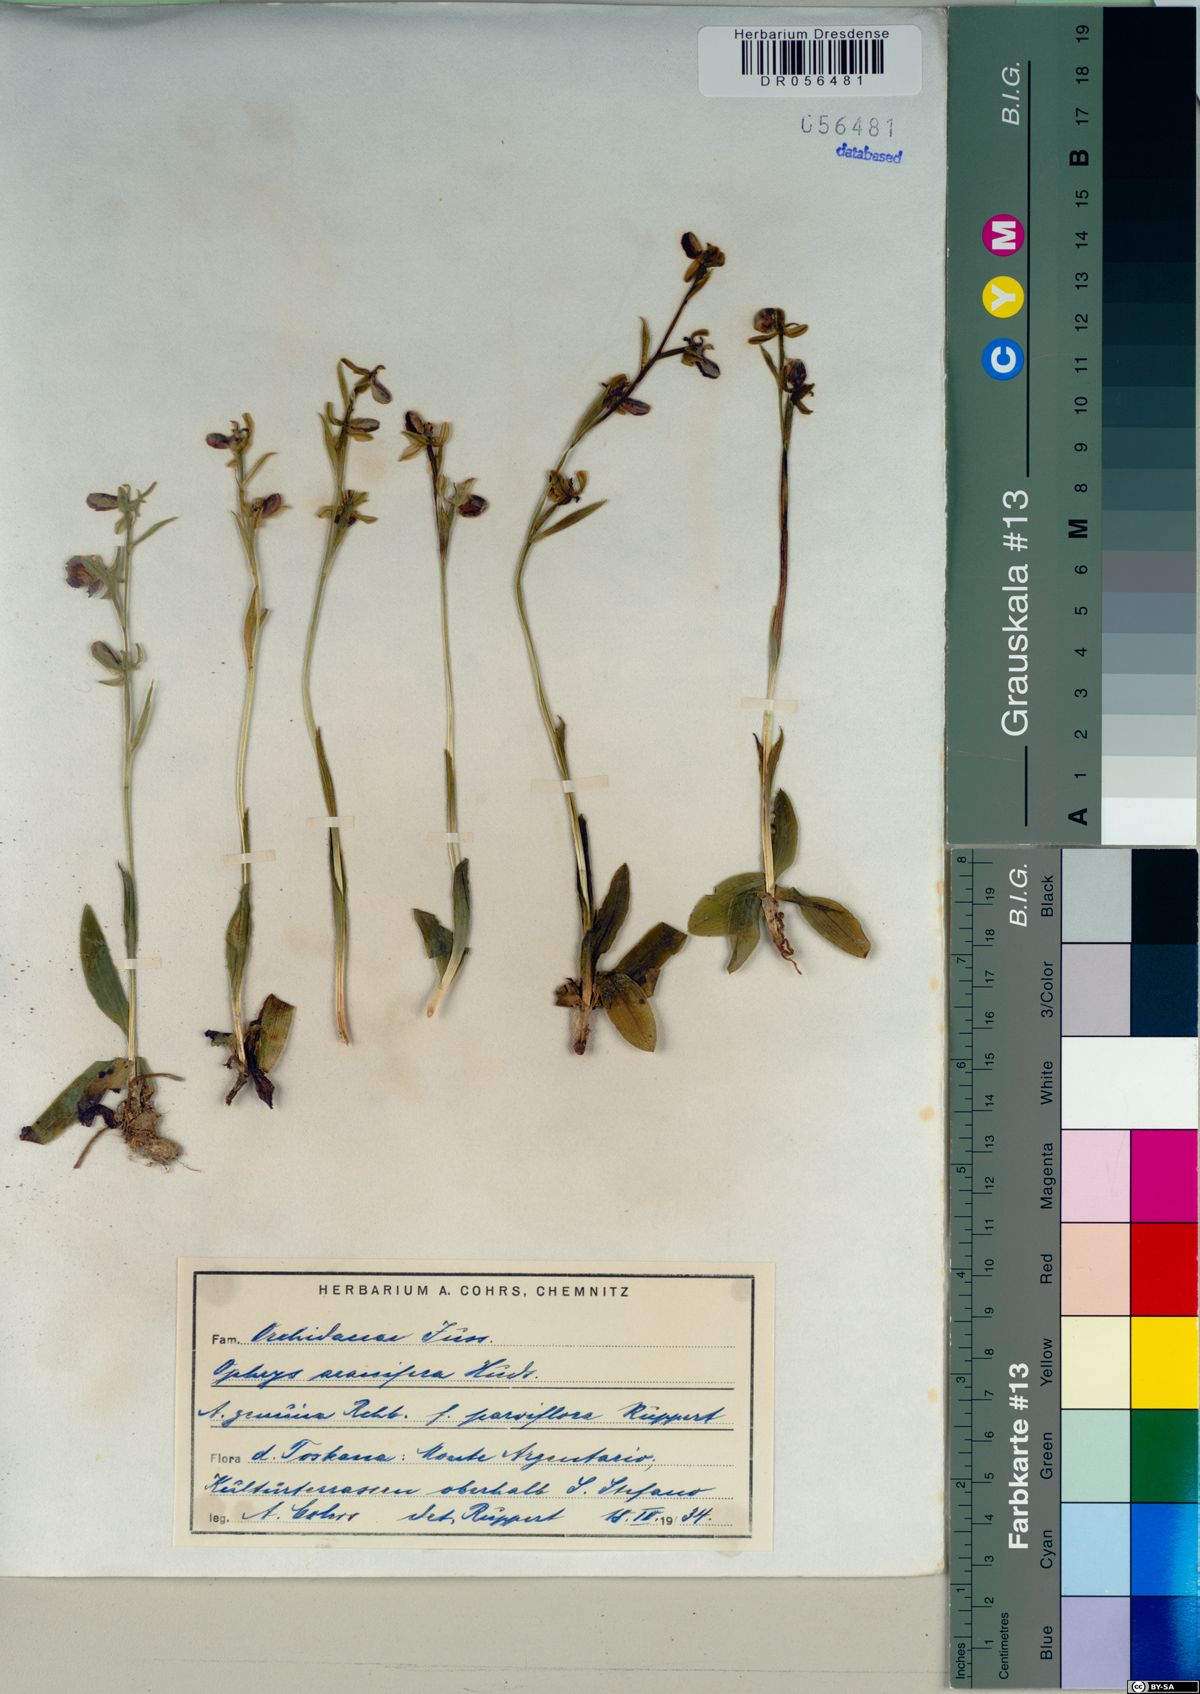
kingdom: Plantae
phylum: Tracheophyta
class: Liliopsida
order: Asparagales
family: Orchidaceae
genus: Ophrys
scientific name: Ophrys sphegodes
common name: Early spider-orchid
